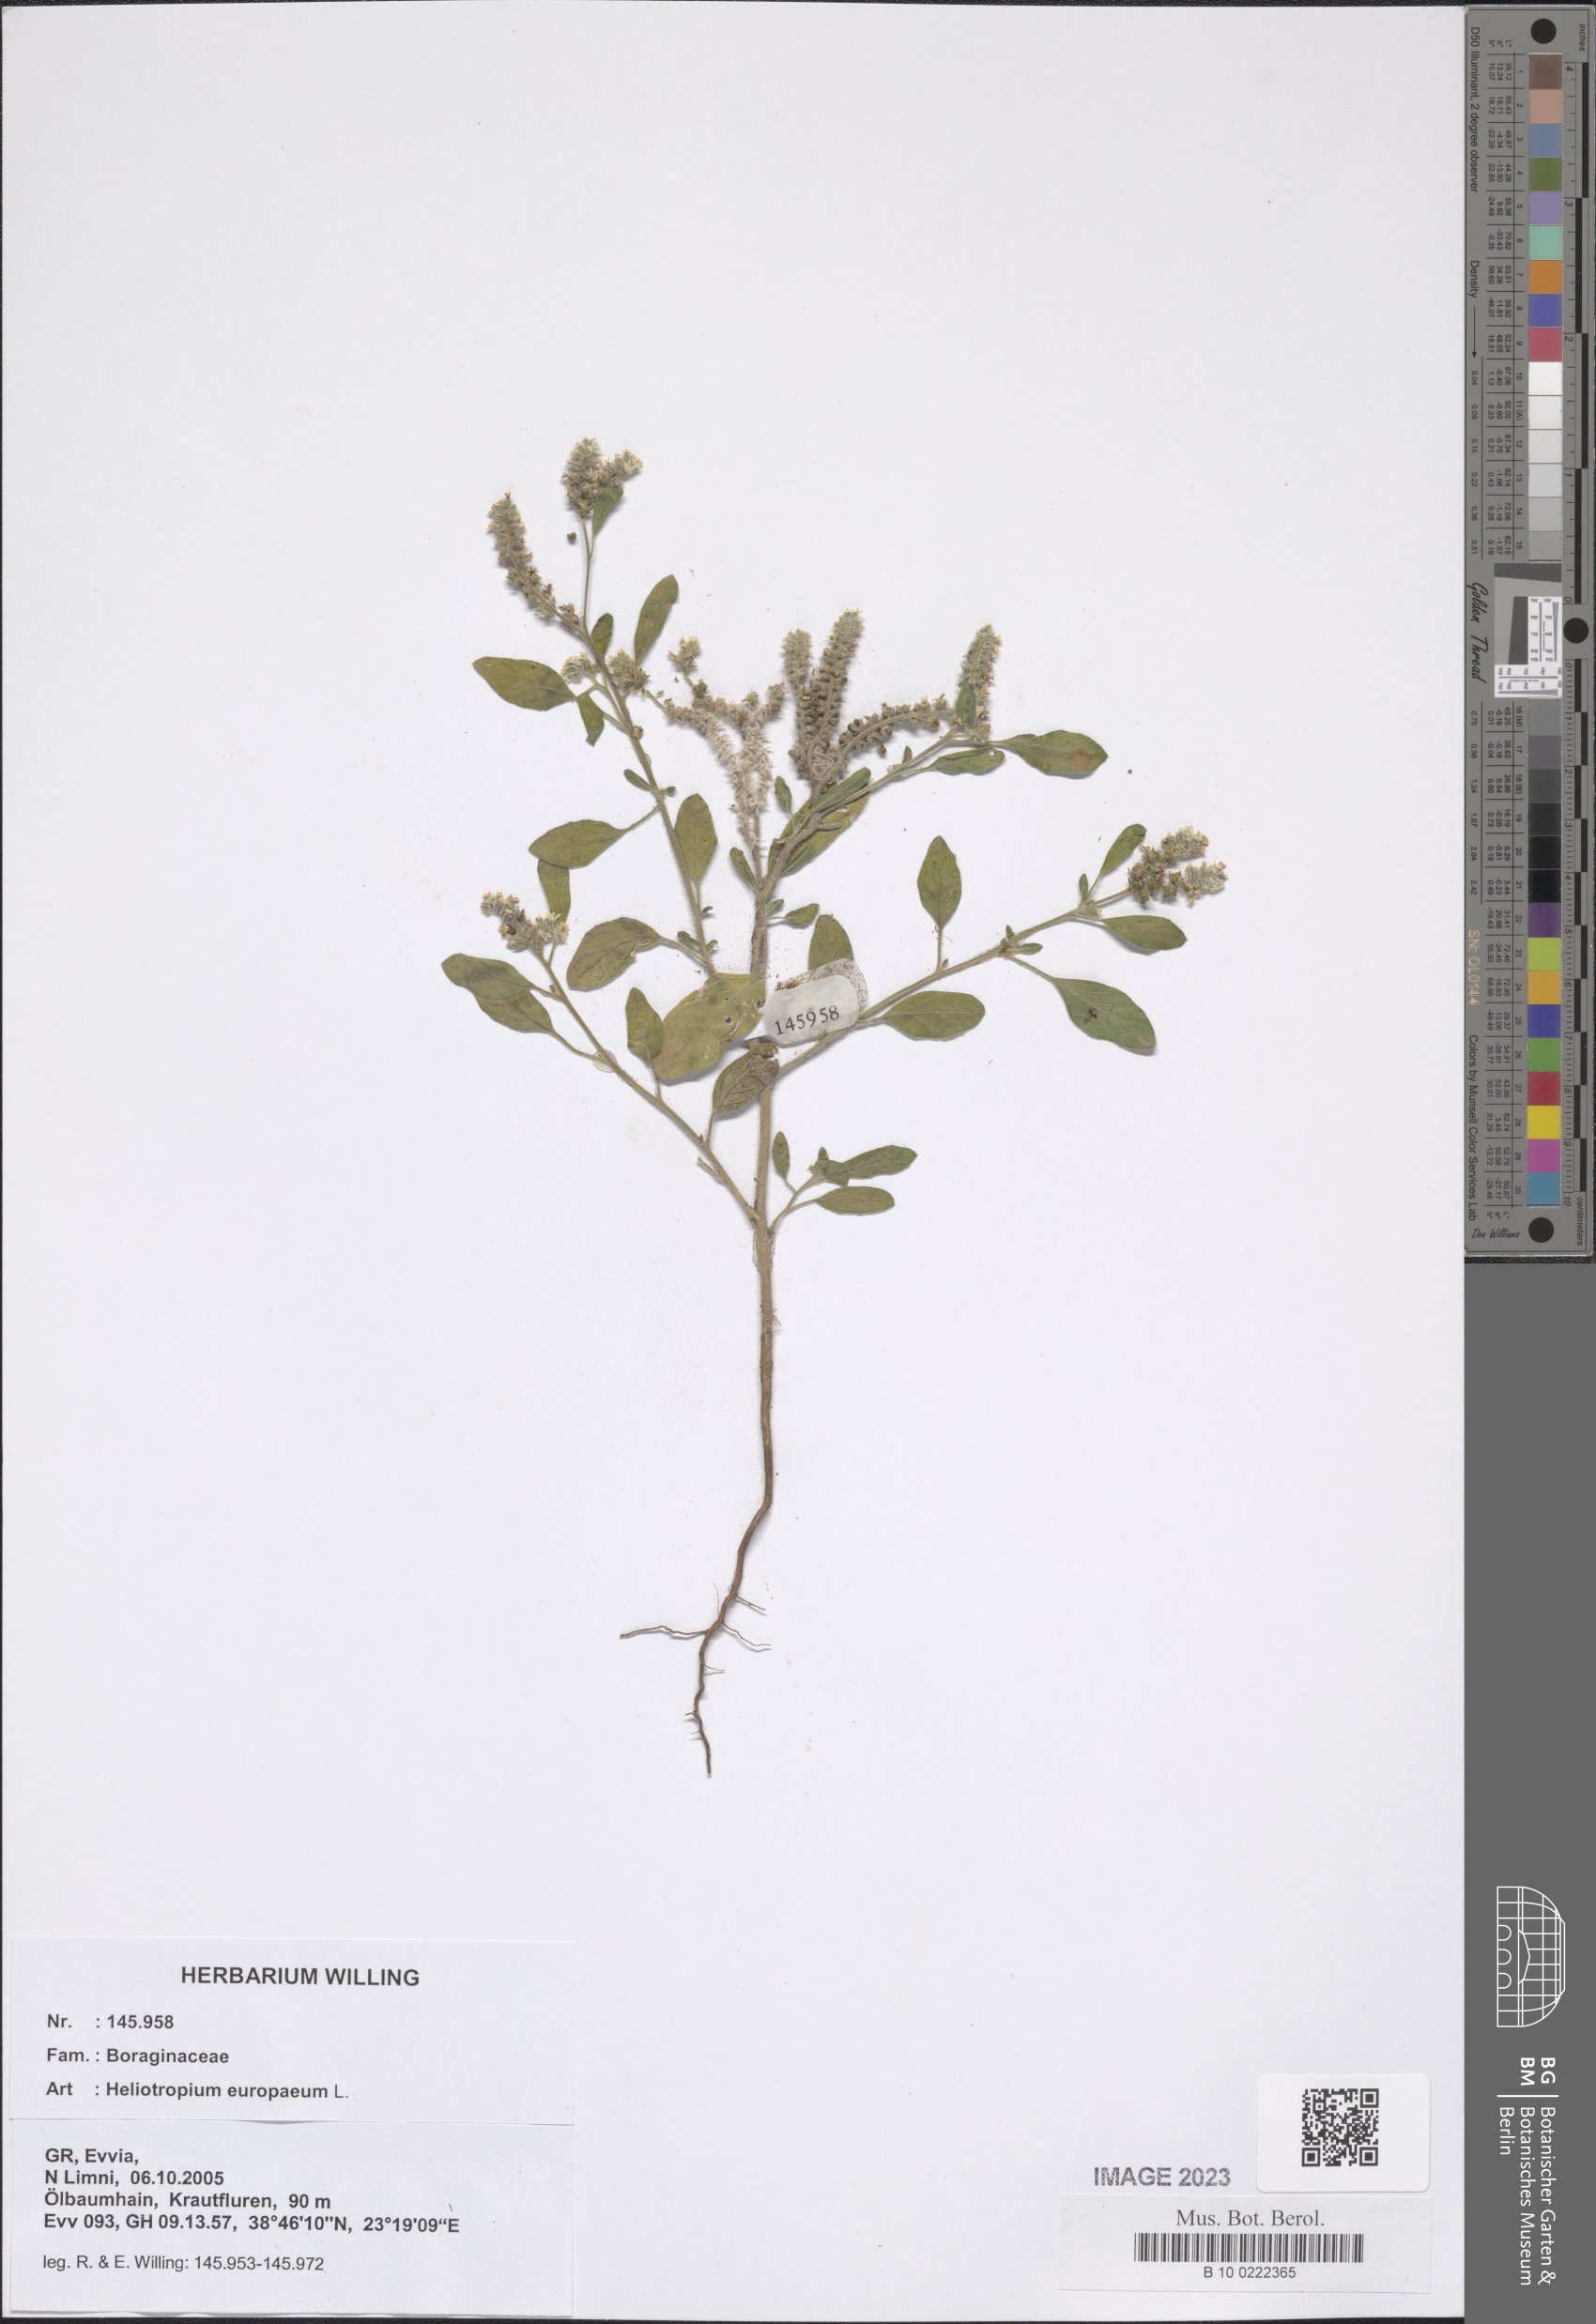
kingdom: Plantae
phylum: Tracheophyta
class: Magnoliopsida
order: Boraginales
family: Heliotropiaceae
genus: Heliotropium
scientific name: Heliotropium europaeum
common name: European heliotrope
